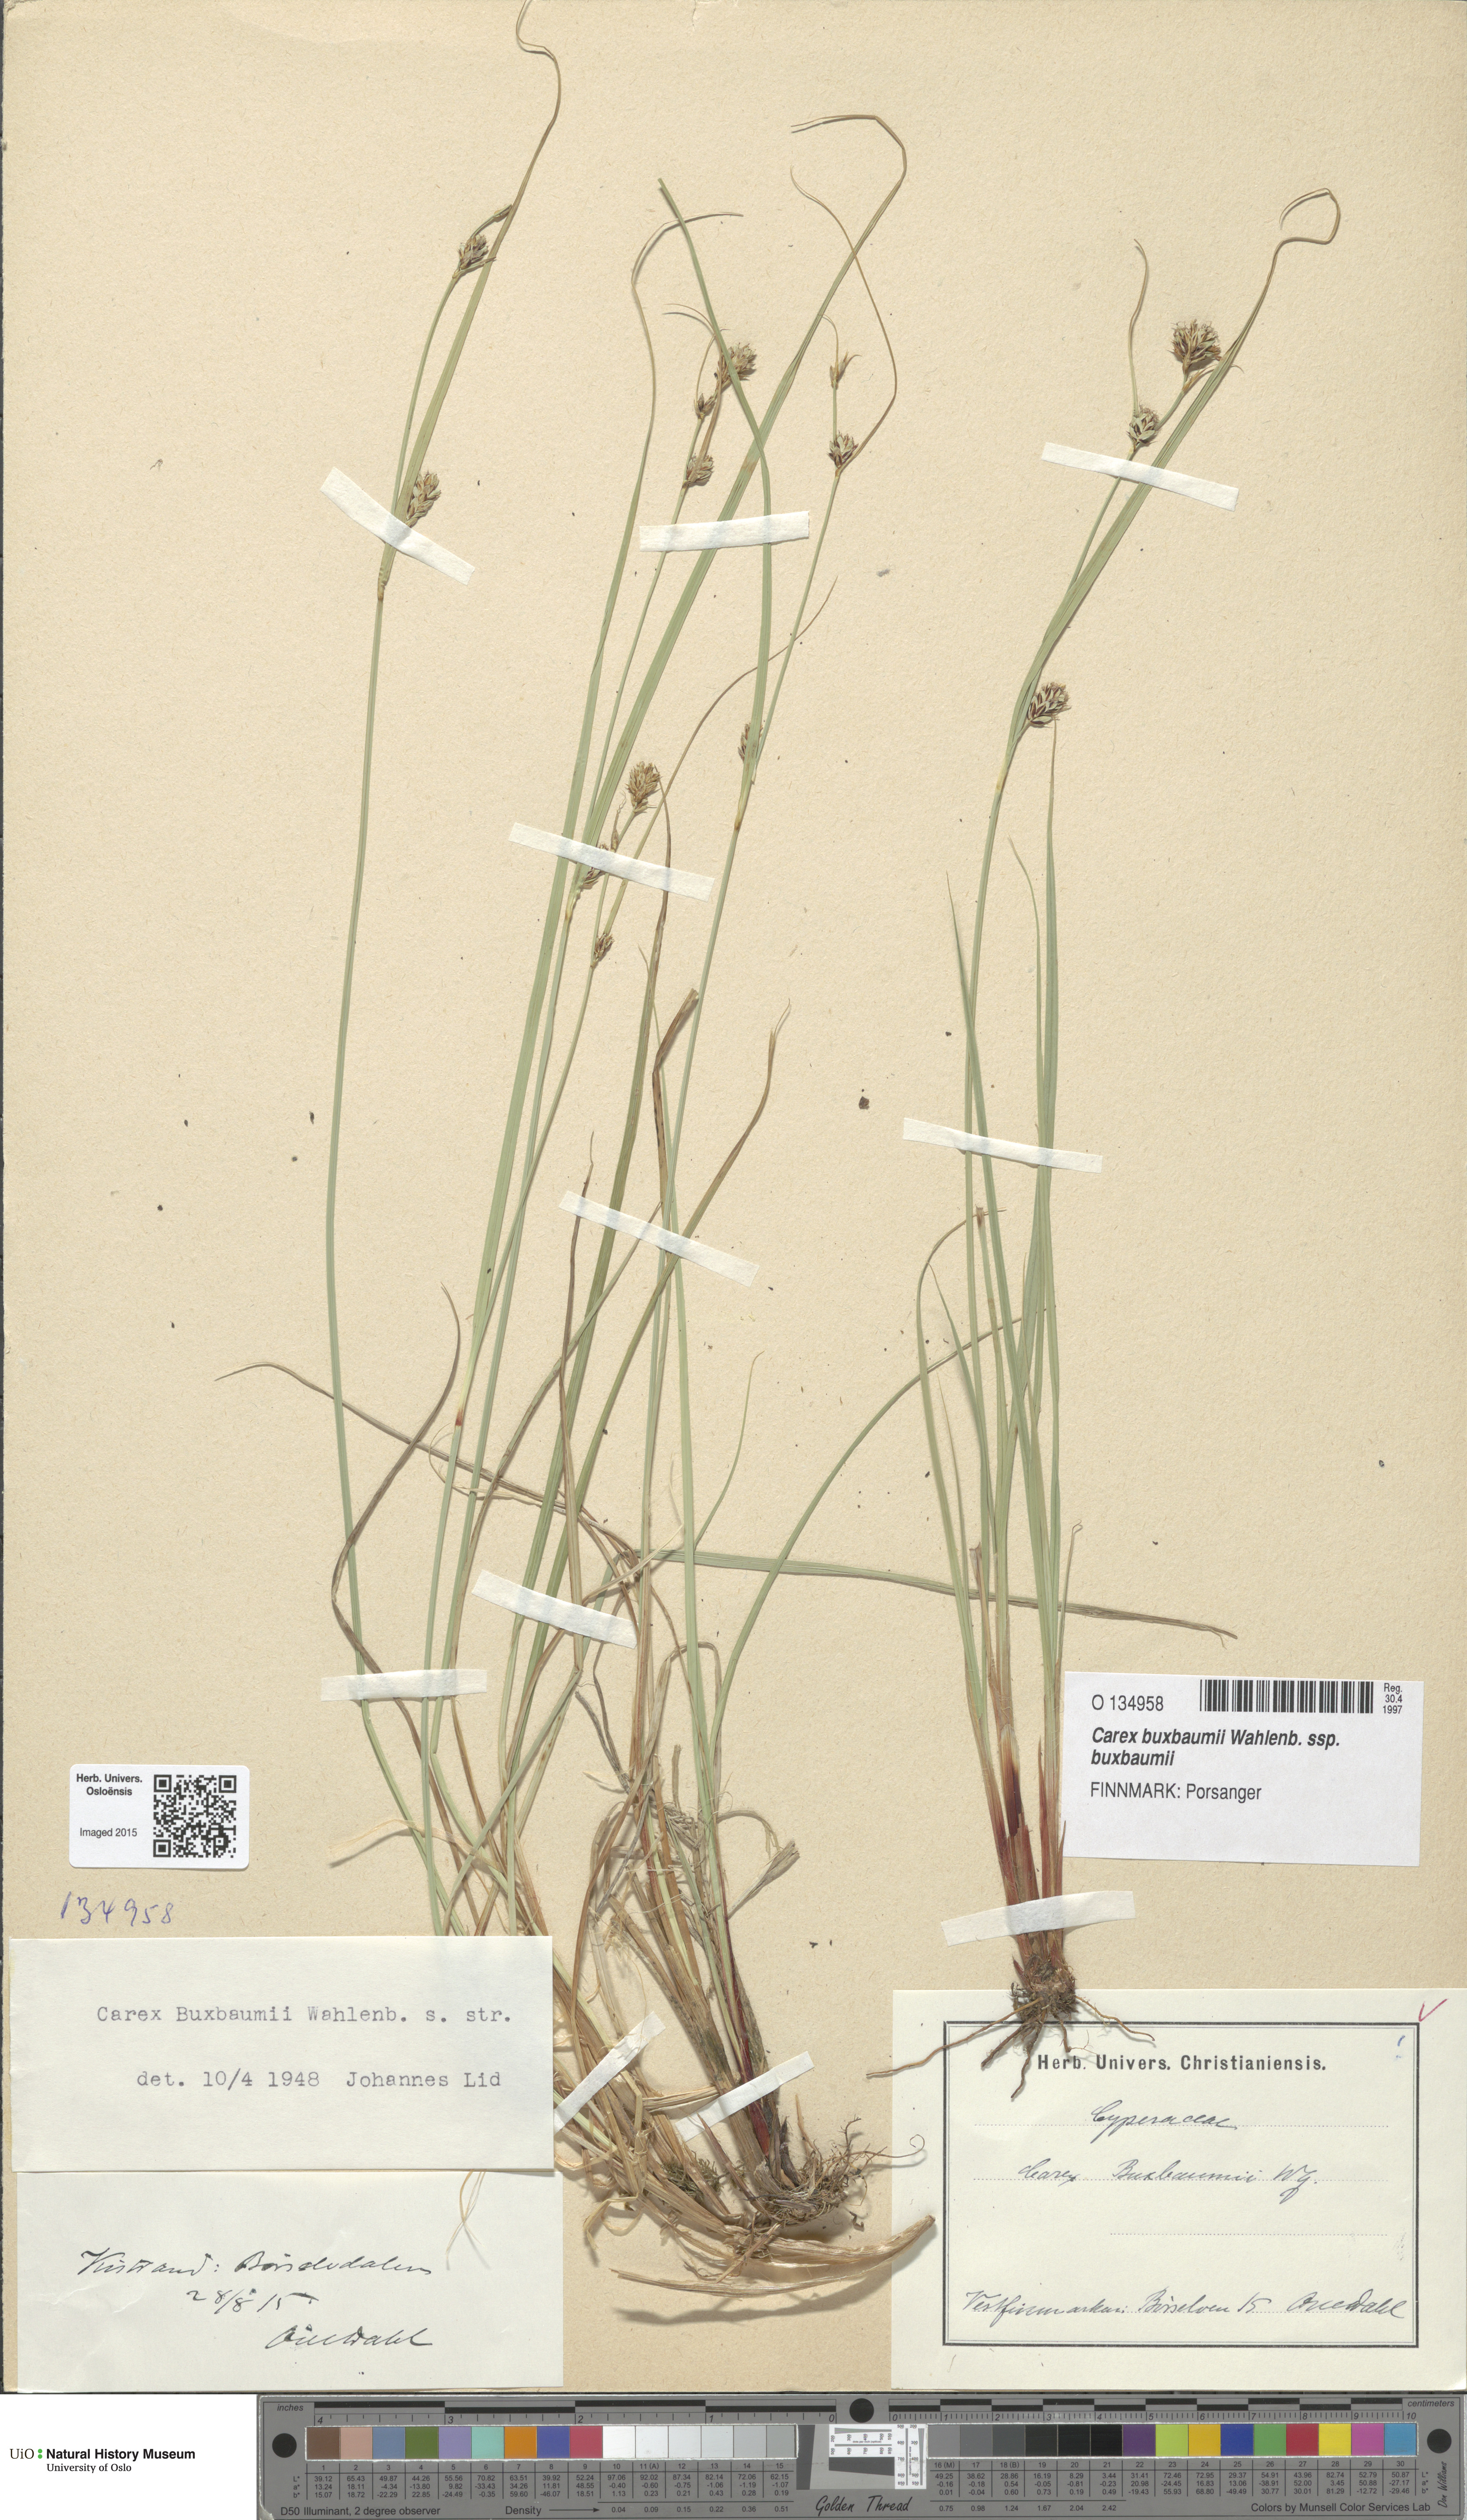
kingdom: Plantae
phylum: Tracheophyta
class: Liliopsida
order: Poales
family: Cyperaceae
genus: Carex
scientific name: Carex buxbaumii
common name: Club sedge
